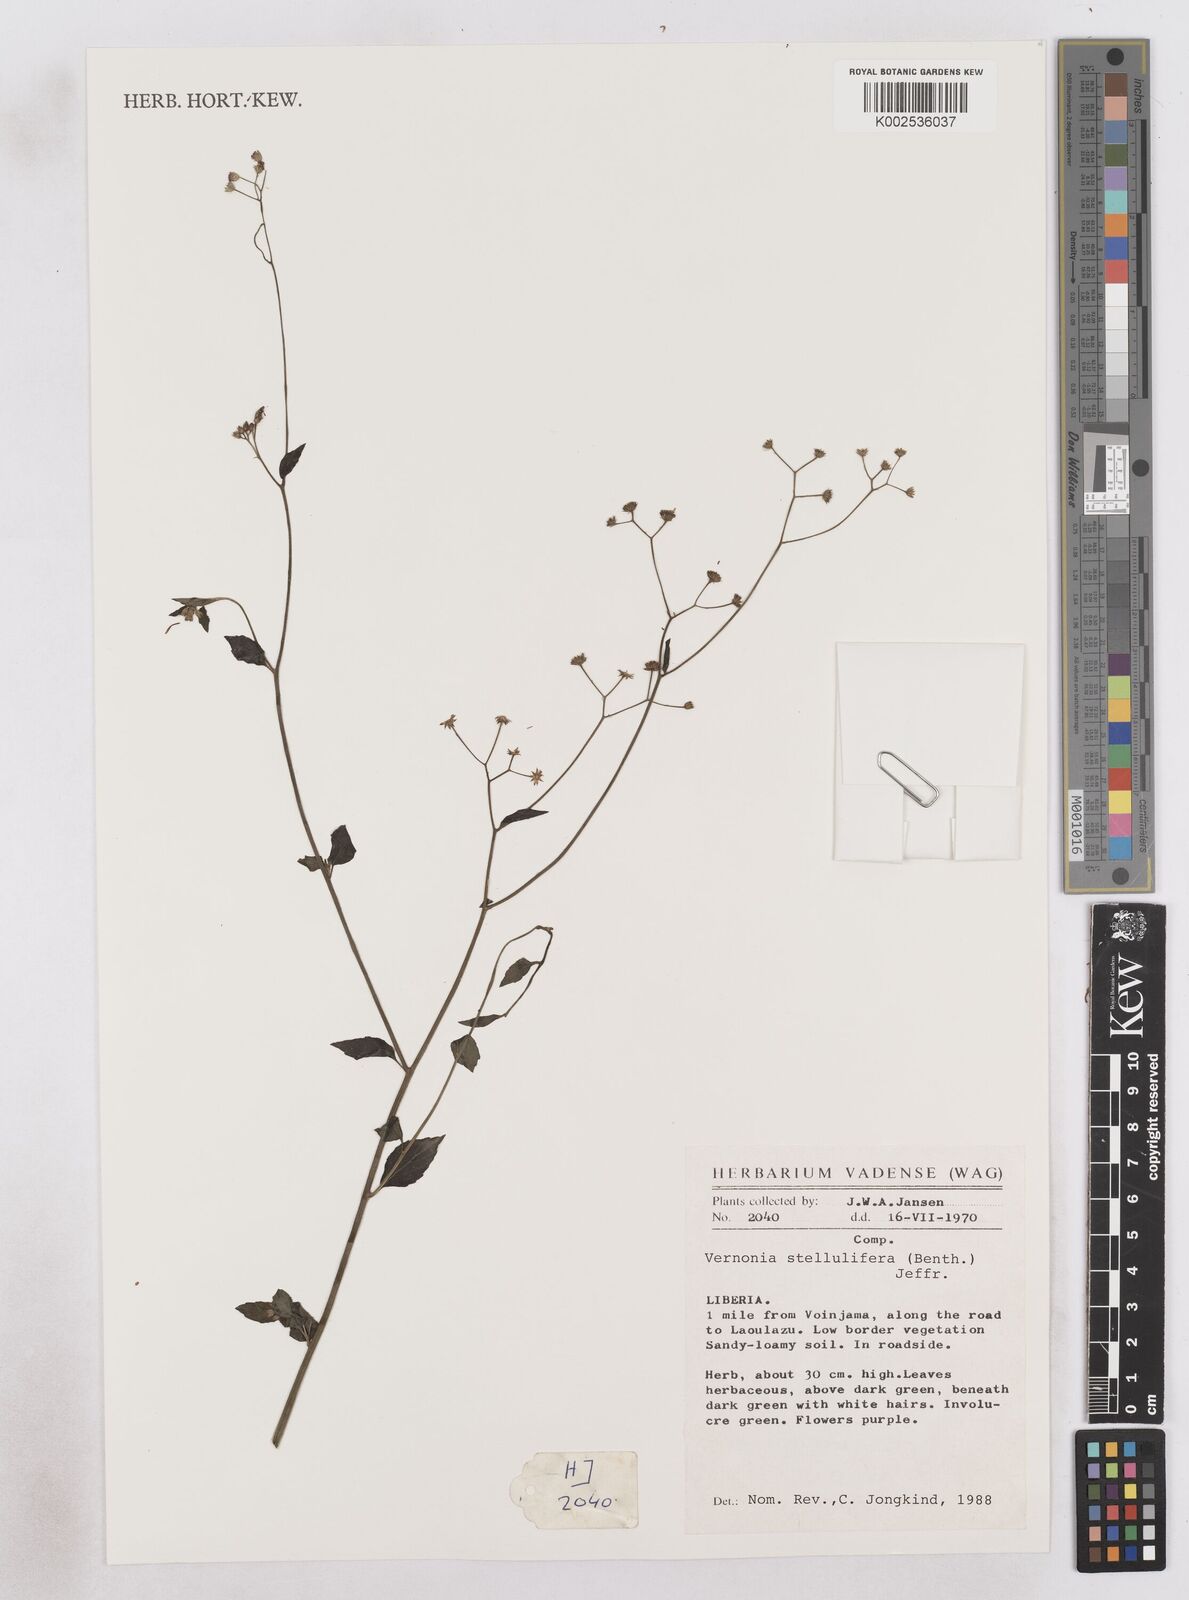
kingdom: Plantae
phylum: Tracheophyta
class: Magnoliopsida
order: Asterales
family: Asteraceae
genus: Cyanthillium
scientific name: Cyanthillium stelluliferum
